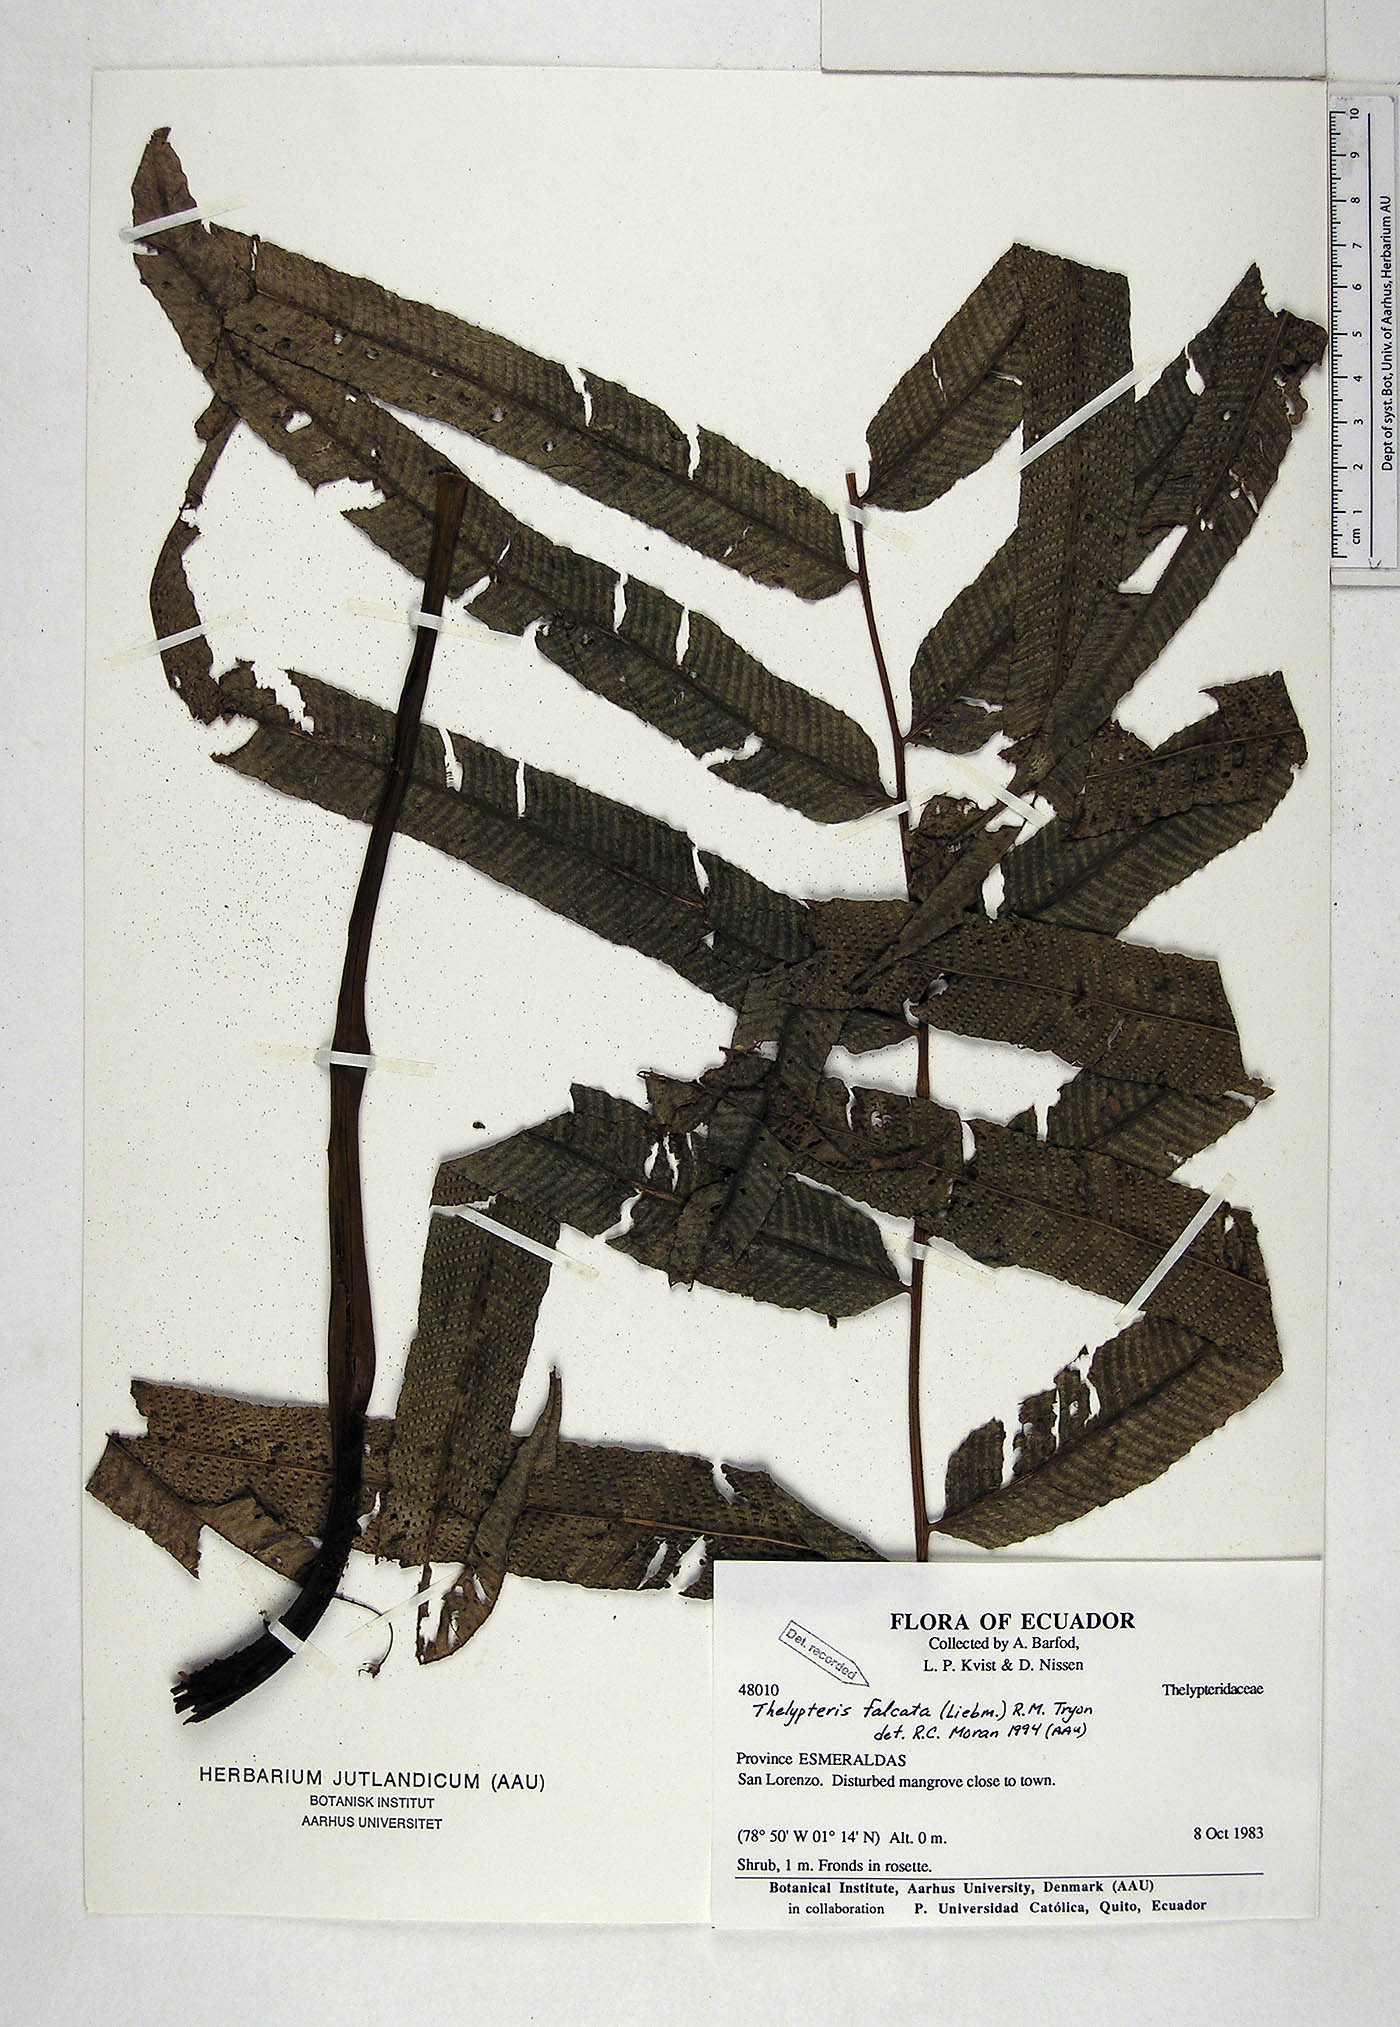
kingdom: Plantae
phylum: Tracheophyta
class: Polypodiopsida
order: Polypodiales
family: Thelypteridaceae
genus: Meniscium
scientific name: Meniscium falcatum
